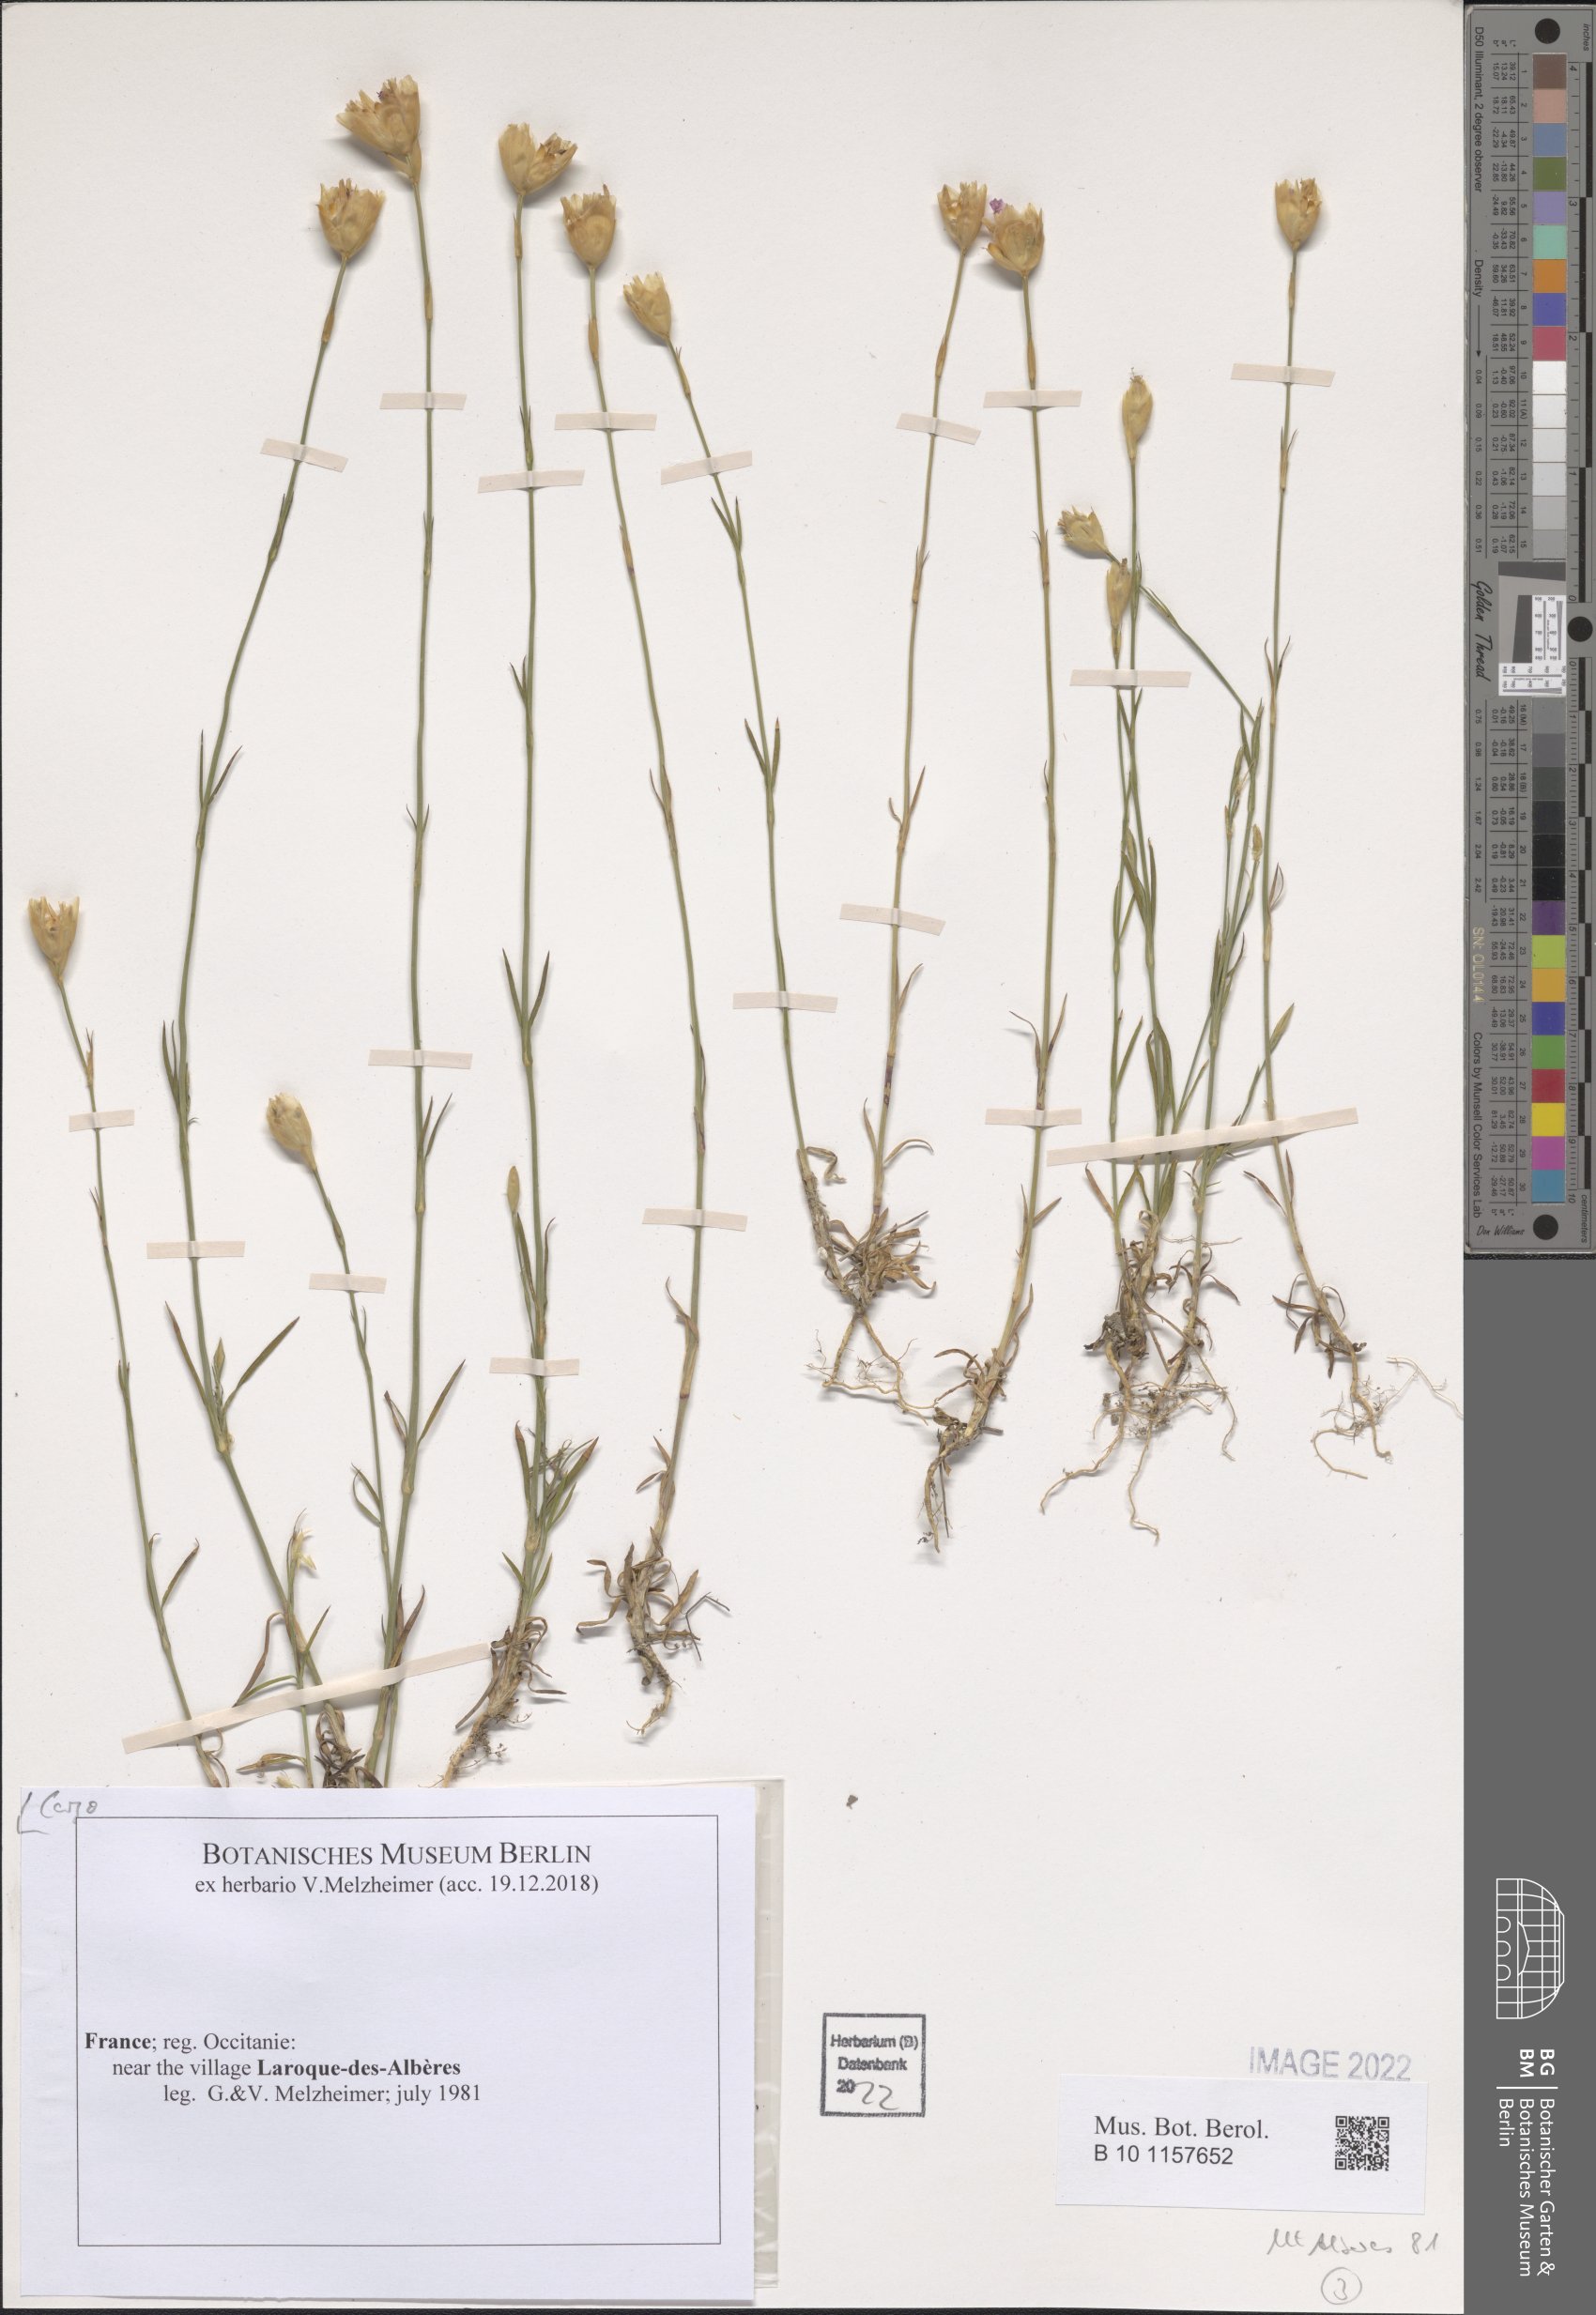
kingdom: Plantae
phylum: Tracheophyta
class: Magnoliopsida
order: Caryophyllales
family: Caryophyllaceae
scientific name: Caryophyllaceae
